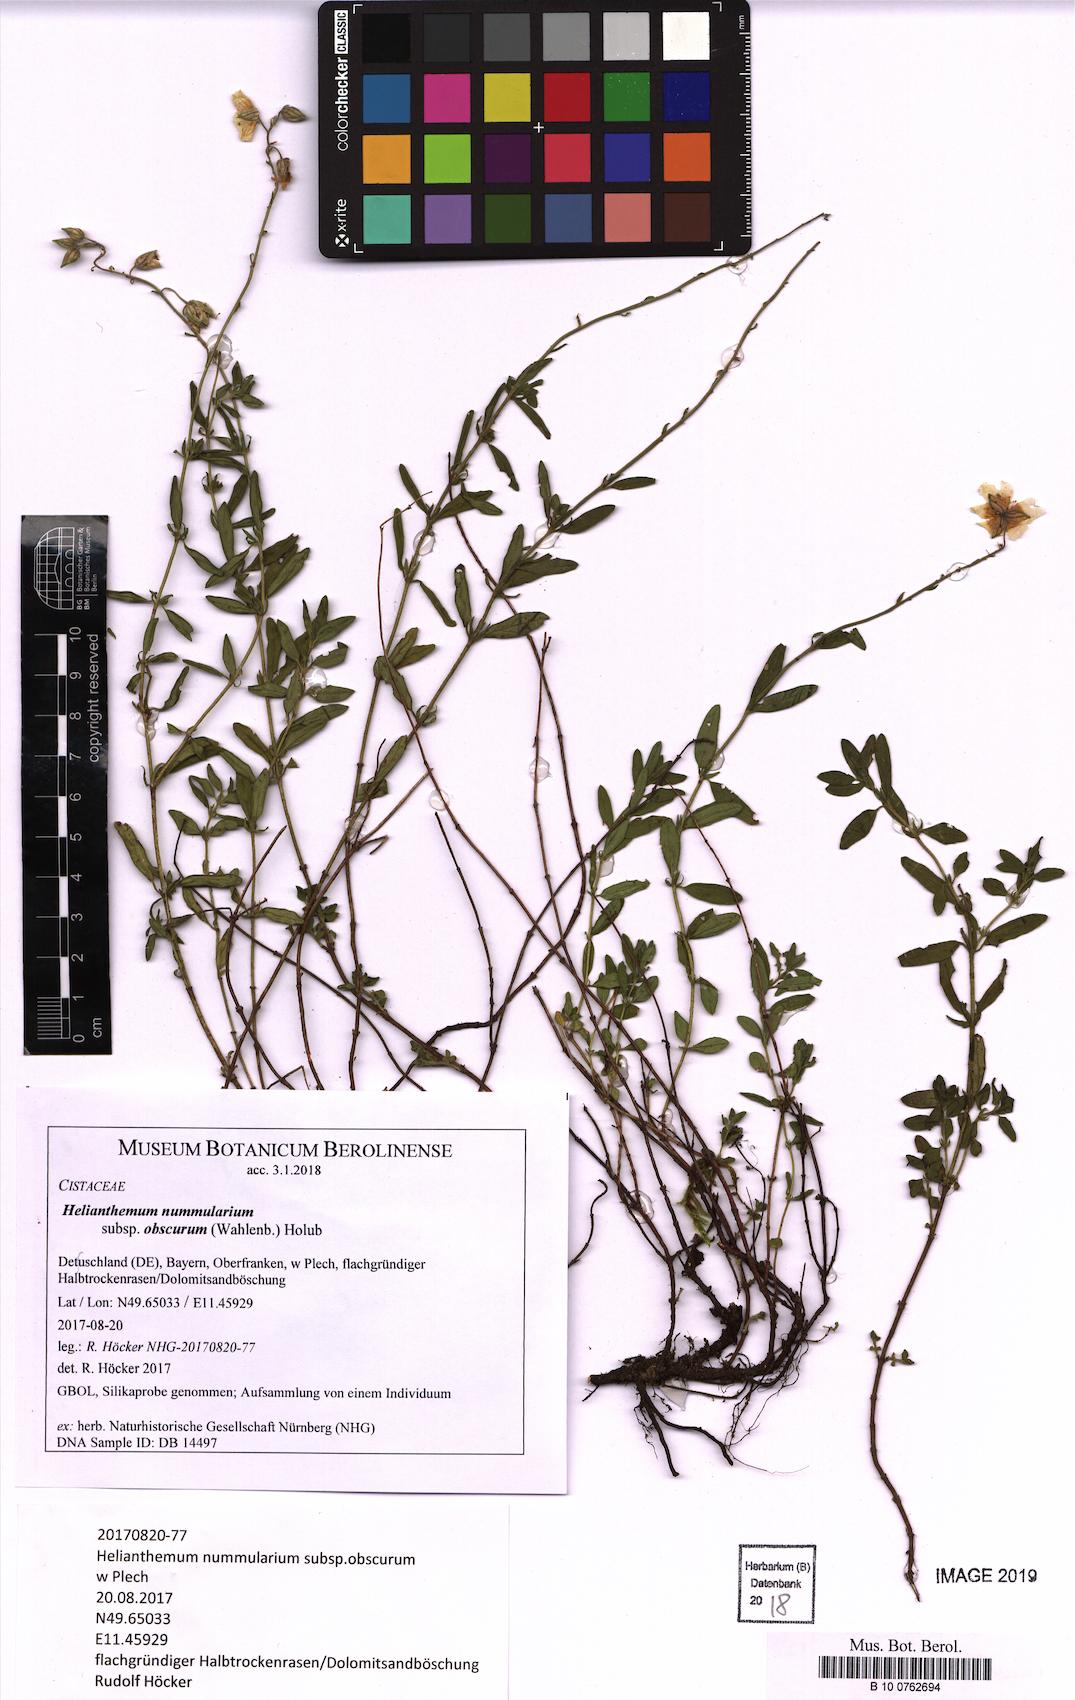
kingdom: Plantae
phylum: Tracheophyta
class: Magnoliopsida
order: Malvales
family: Cistaceae
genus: Helianthemum
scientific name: Helianthemum nummularium
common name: Common rock-rose
